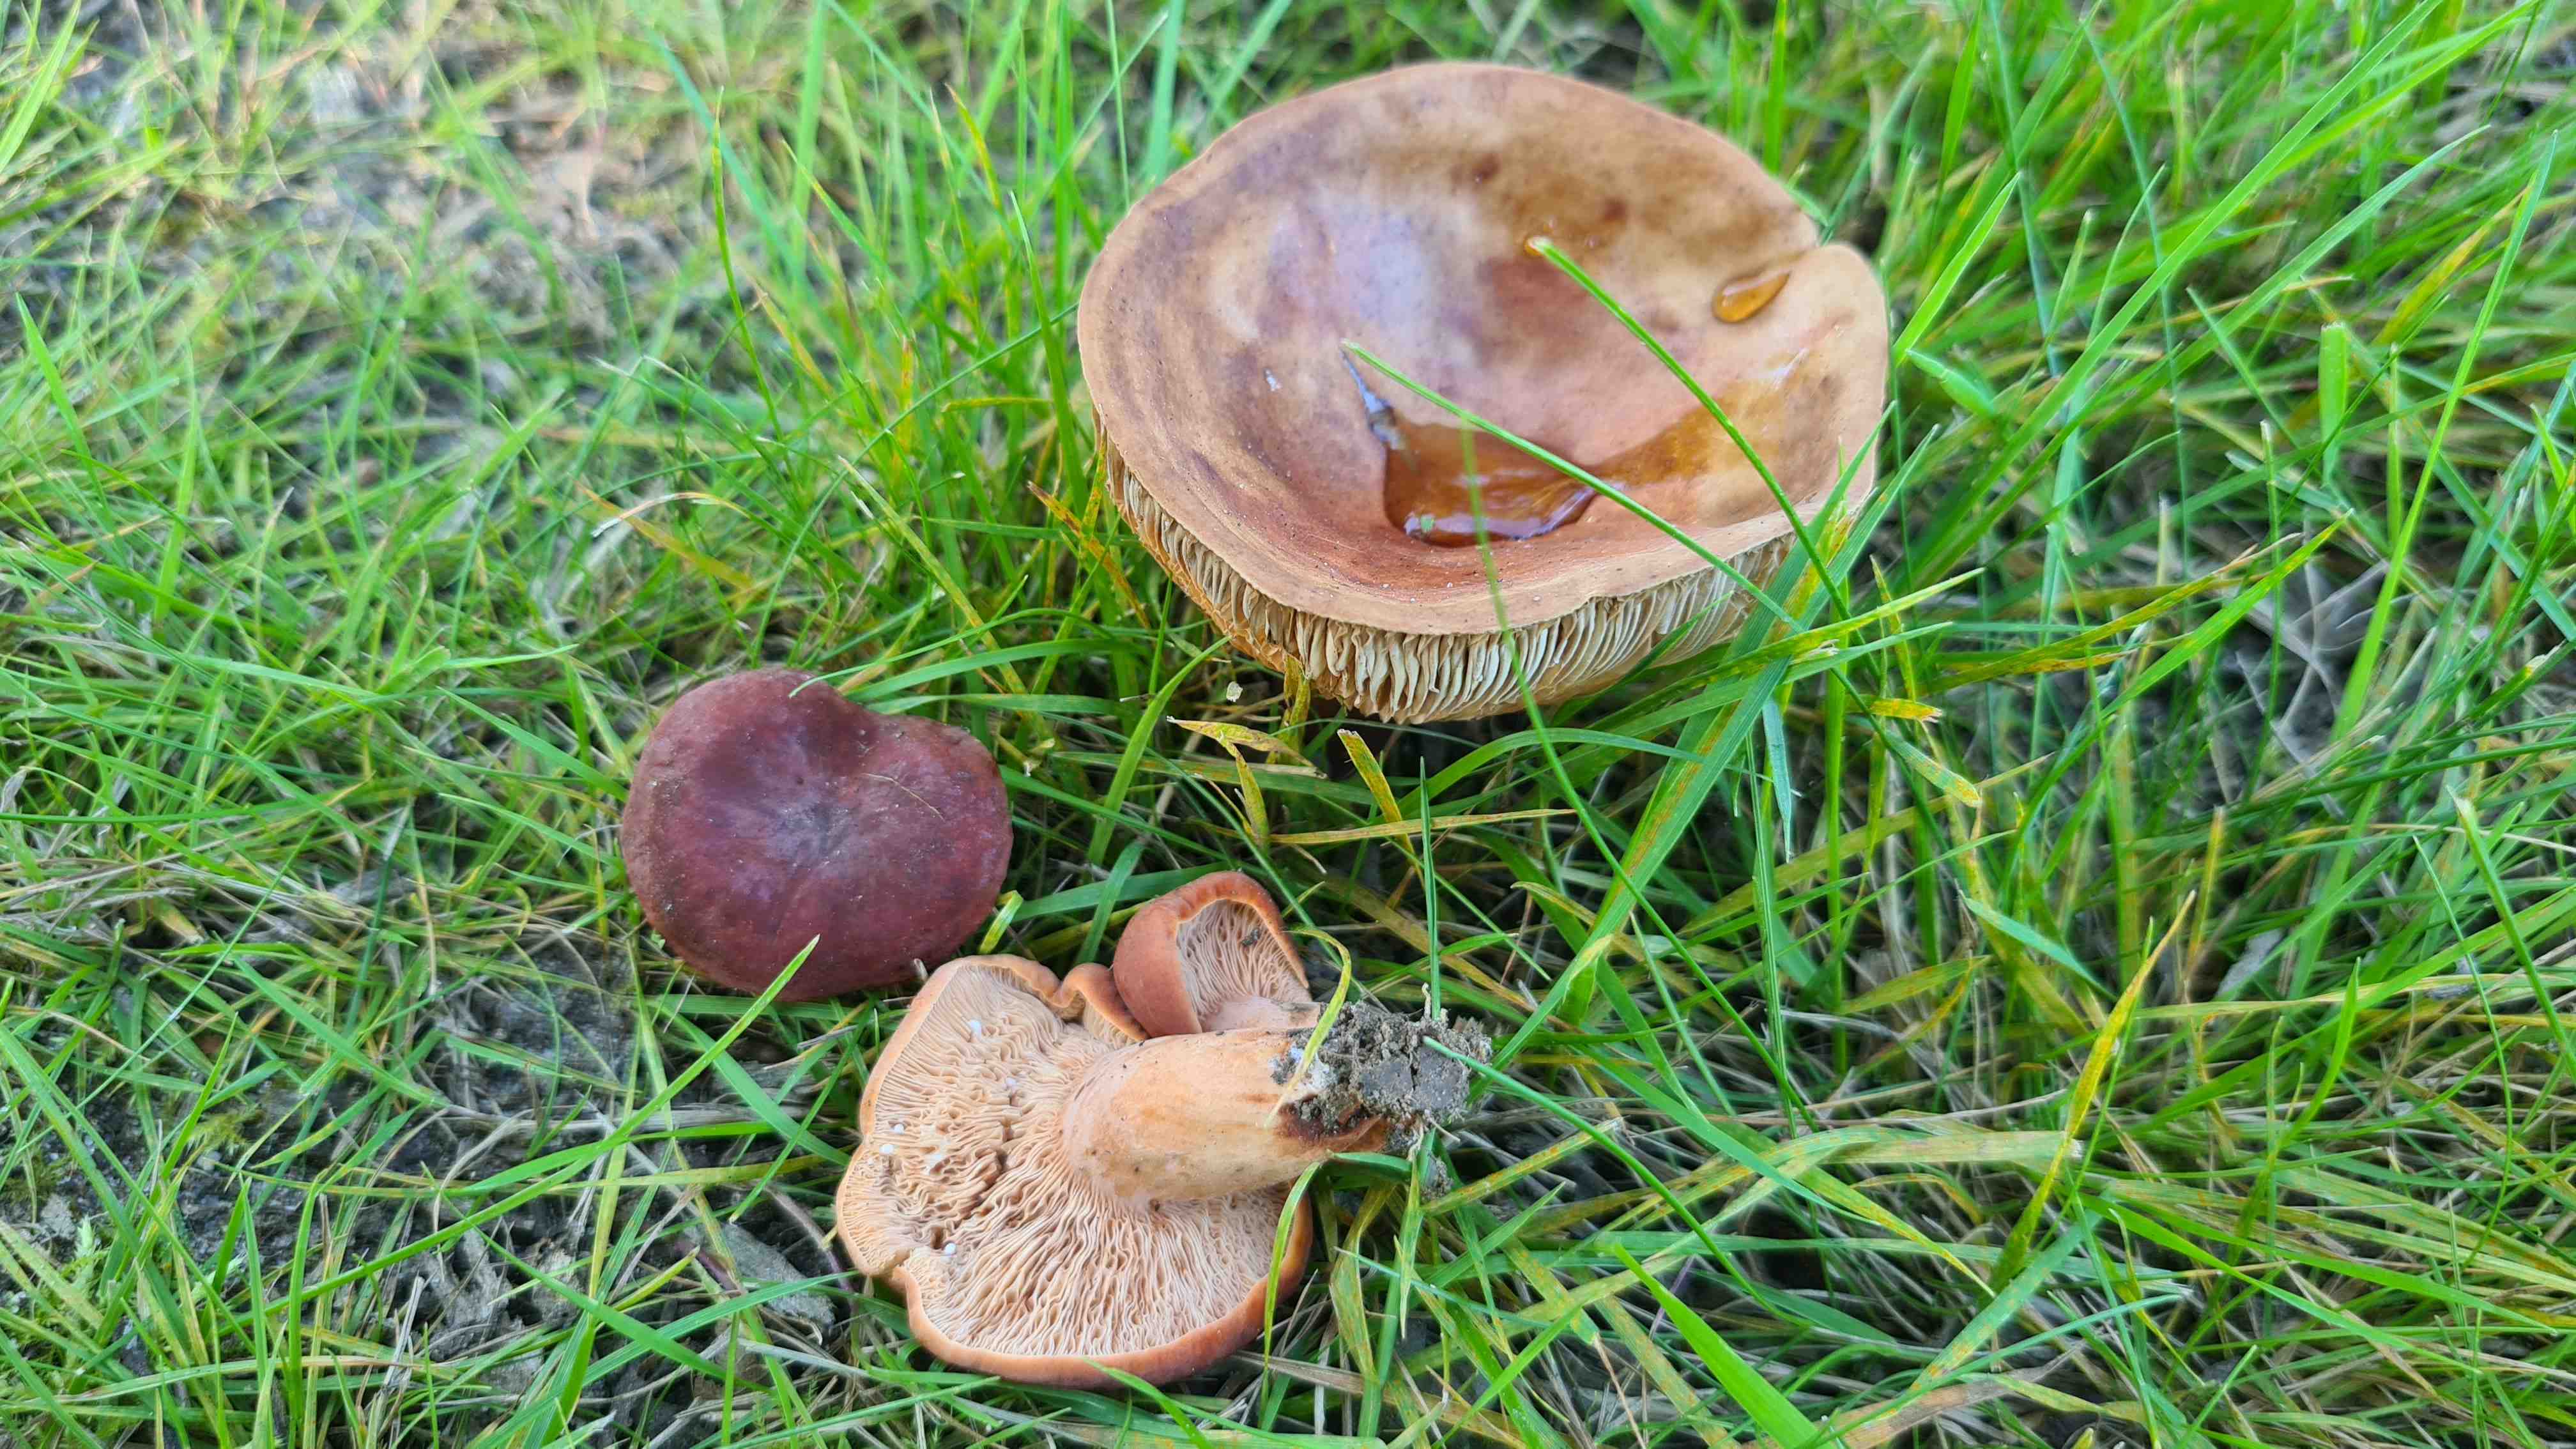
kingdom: Fungi
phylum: Basidiomycota
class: Agaricomycetes
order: Russulales
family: Russulaceae
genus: Lactarius
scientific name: Lactarius fulvissimus
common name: ræve-mælkehat
